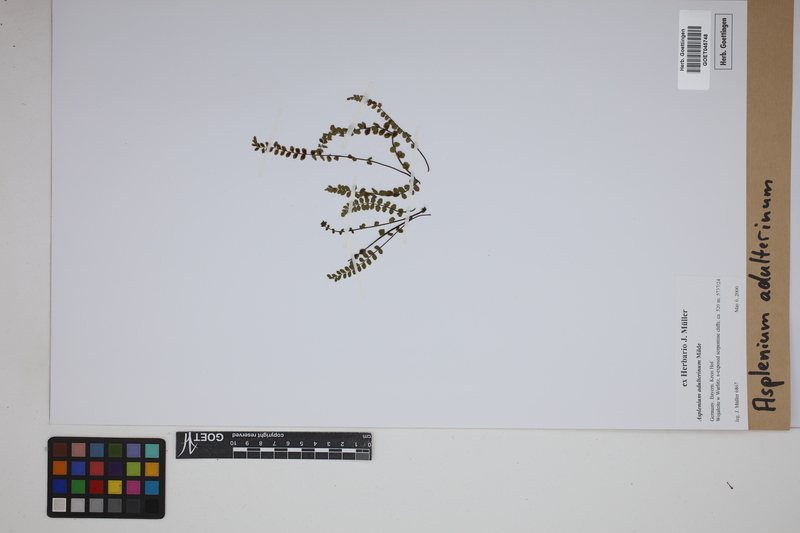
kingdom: Plantae
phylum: Tracheophyta
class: Polypodiopsida
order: Polypodiales
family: Aspleniaceae
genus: Asplenium
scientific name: Asplenium adulterinum
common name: Adulterated spleenwort
